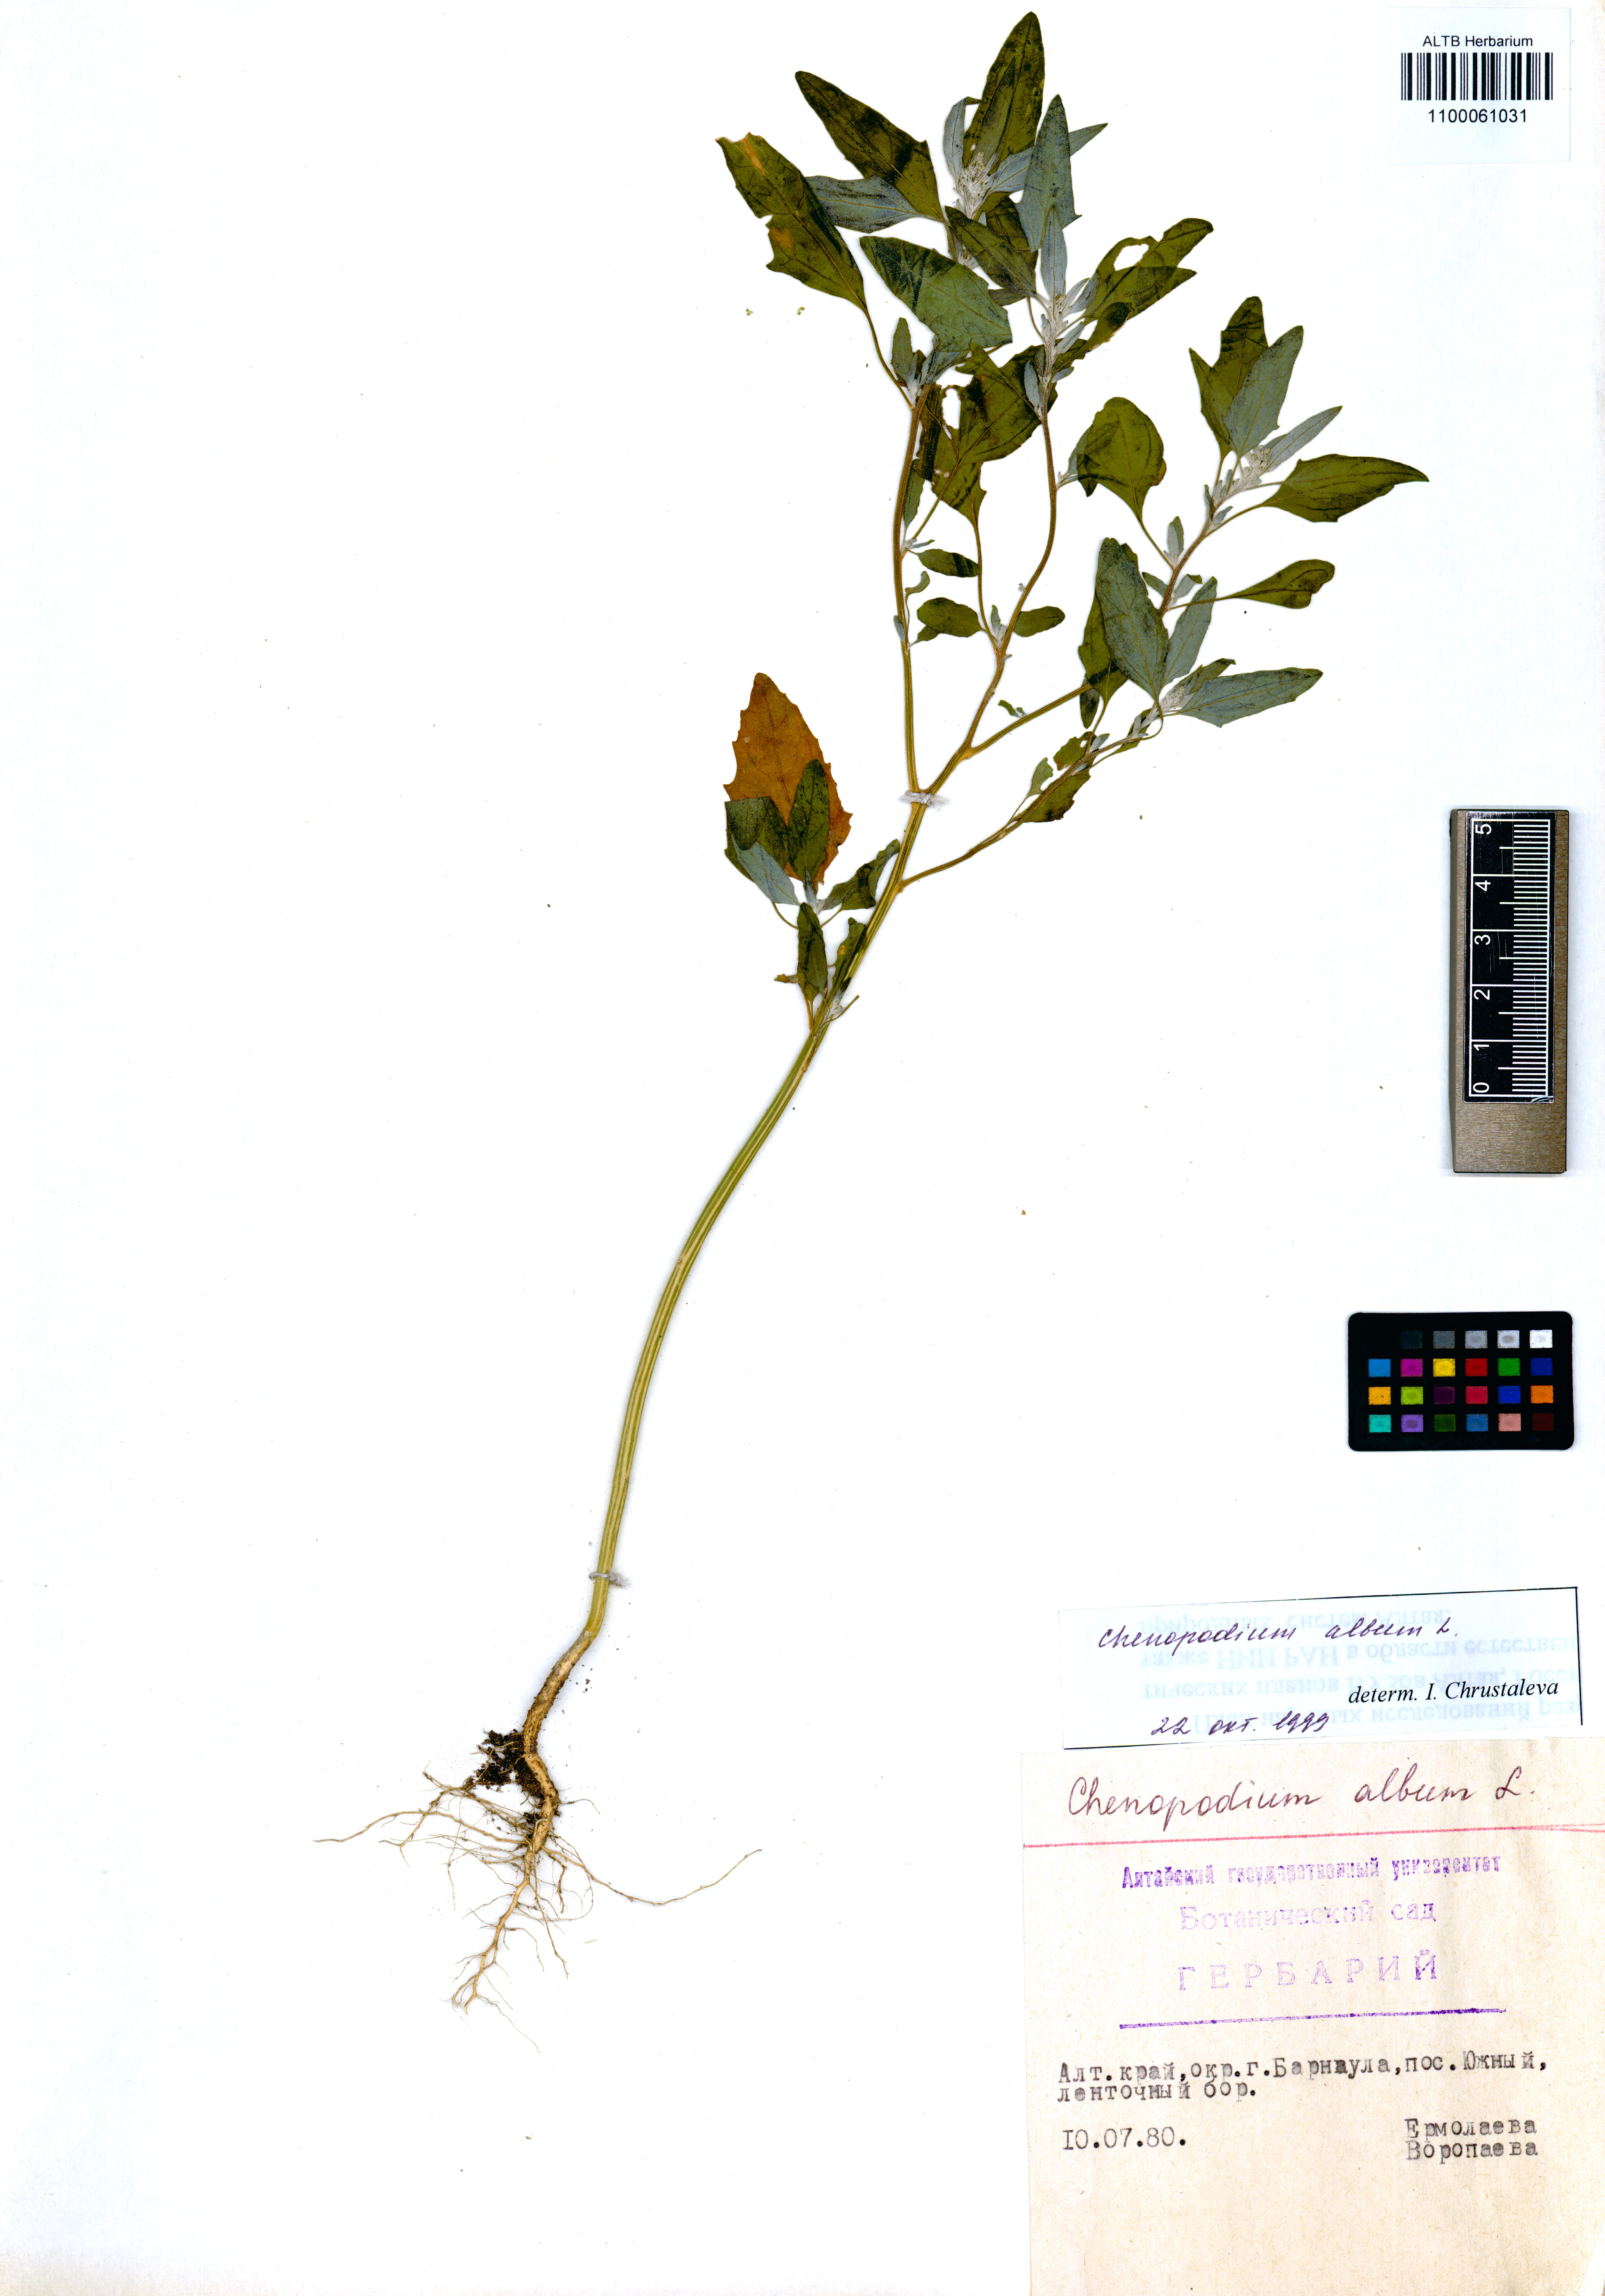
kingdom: Plantae
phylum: Tracheophyta
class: Magnoliopsida
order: Caryophyllales
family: Amaranthaceae
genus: Chenopodium
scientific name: Chenopodium album
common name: Fat-hen
